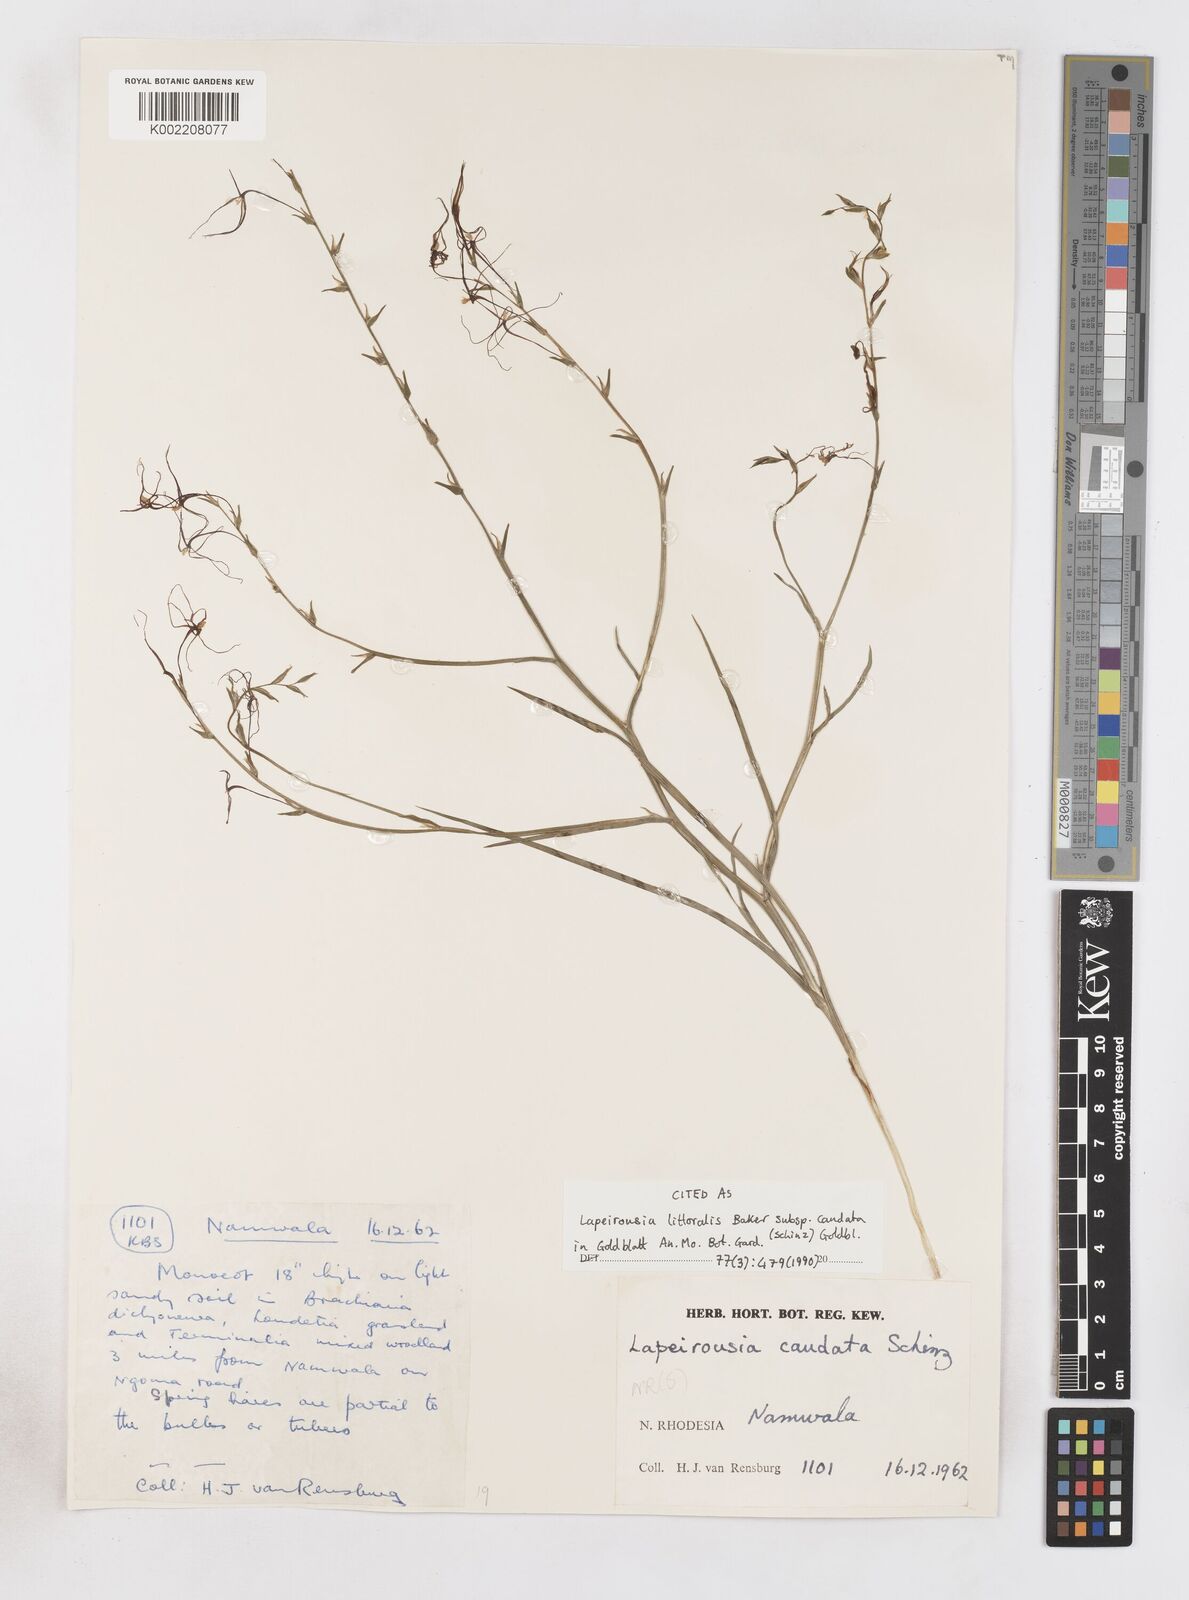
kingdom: Plantae
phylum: Tracheophyta
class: Liliopsida
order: Asparagales
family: Iridaceae
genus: Lapeirousia
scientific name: Lapeirousia caudata
